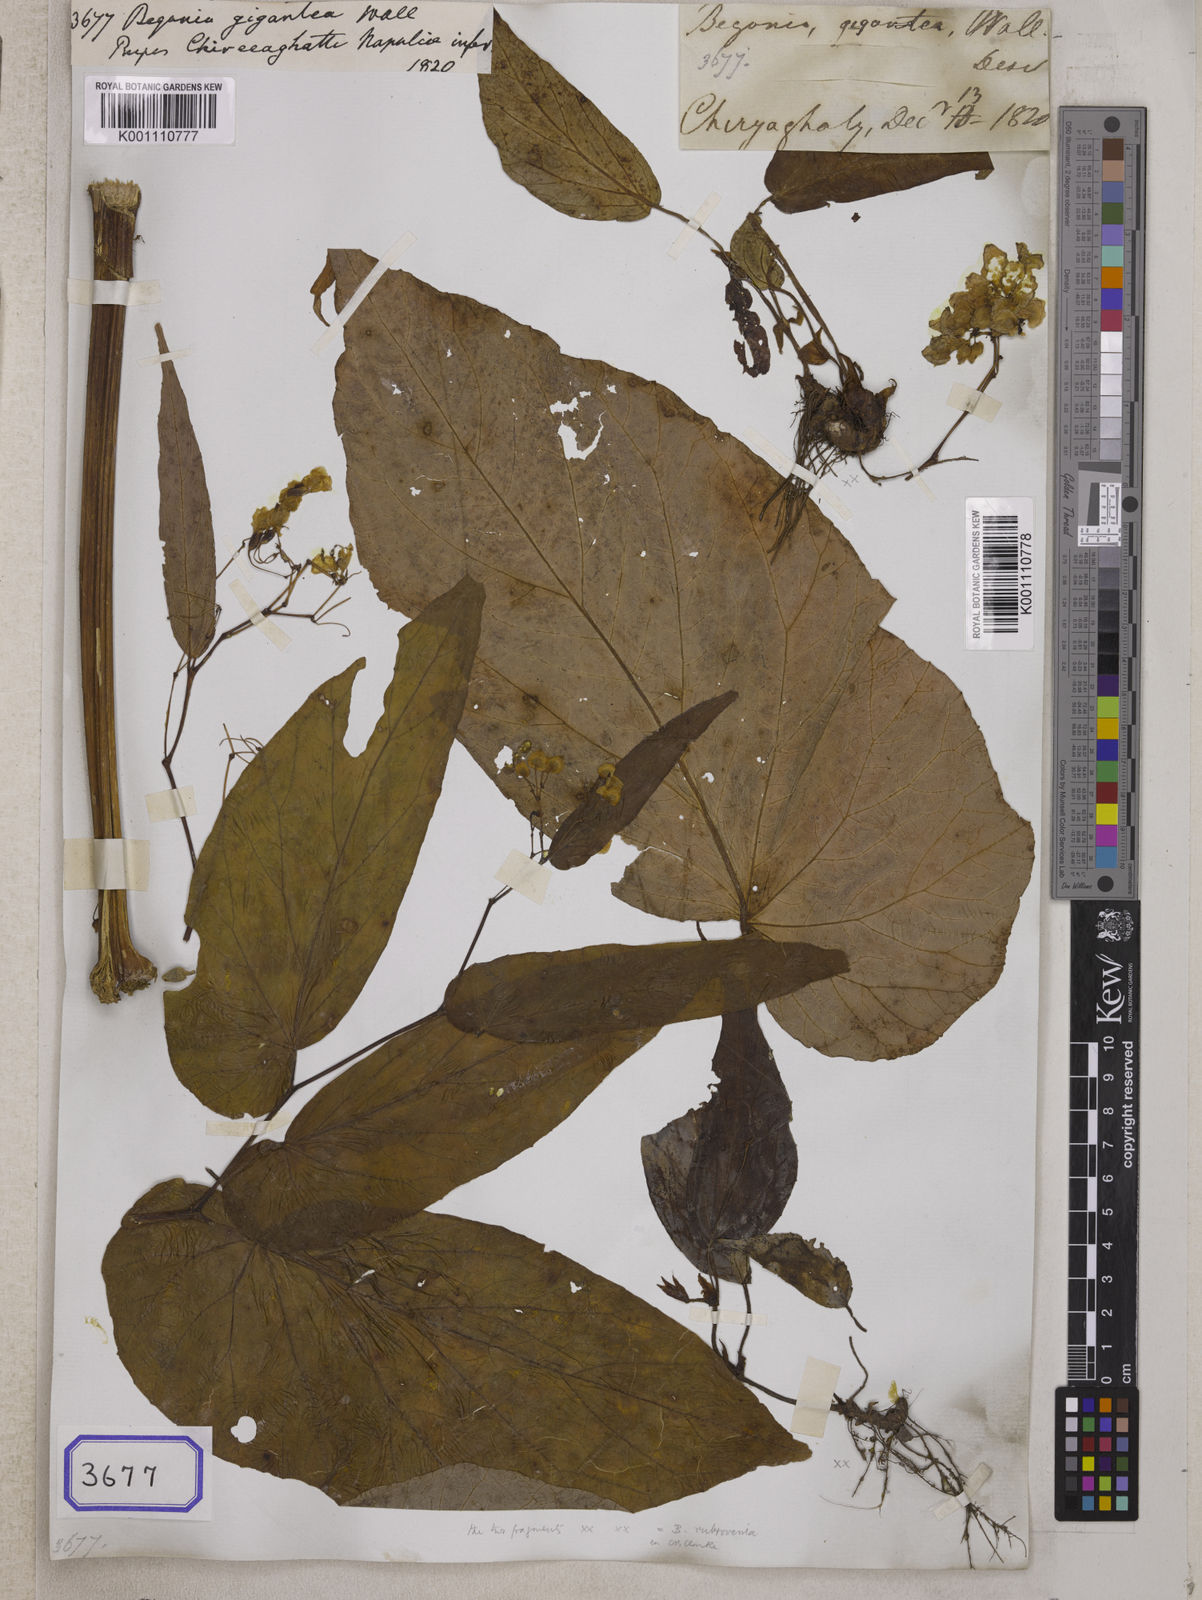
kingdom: Plantae
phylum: Tracheophyta
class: Magnoliopsida
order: Cucurbitales
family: Begoniaceae
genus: Begonia
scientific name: Begonia
